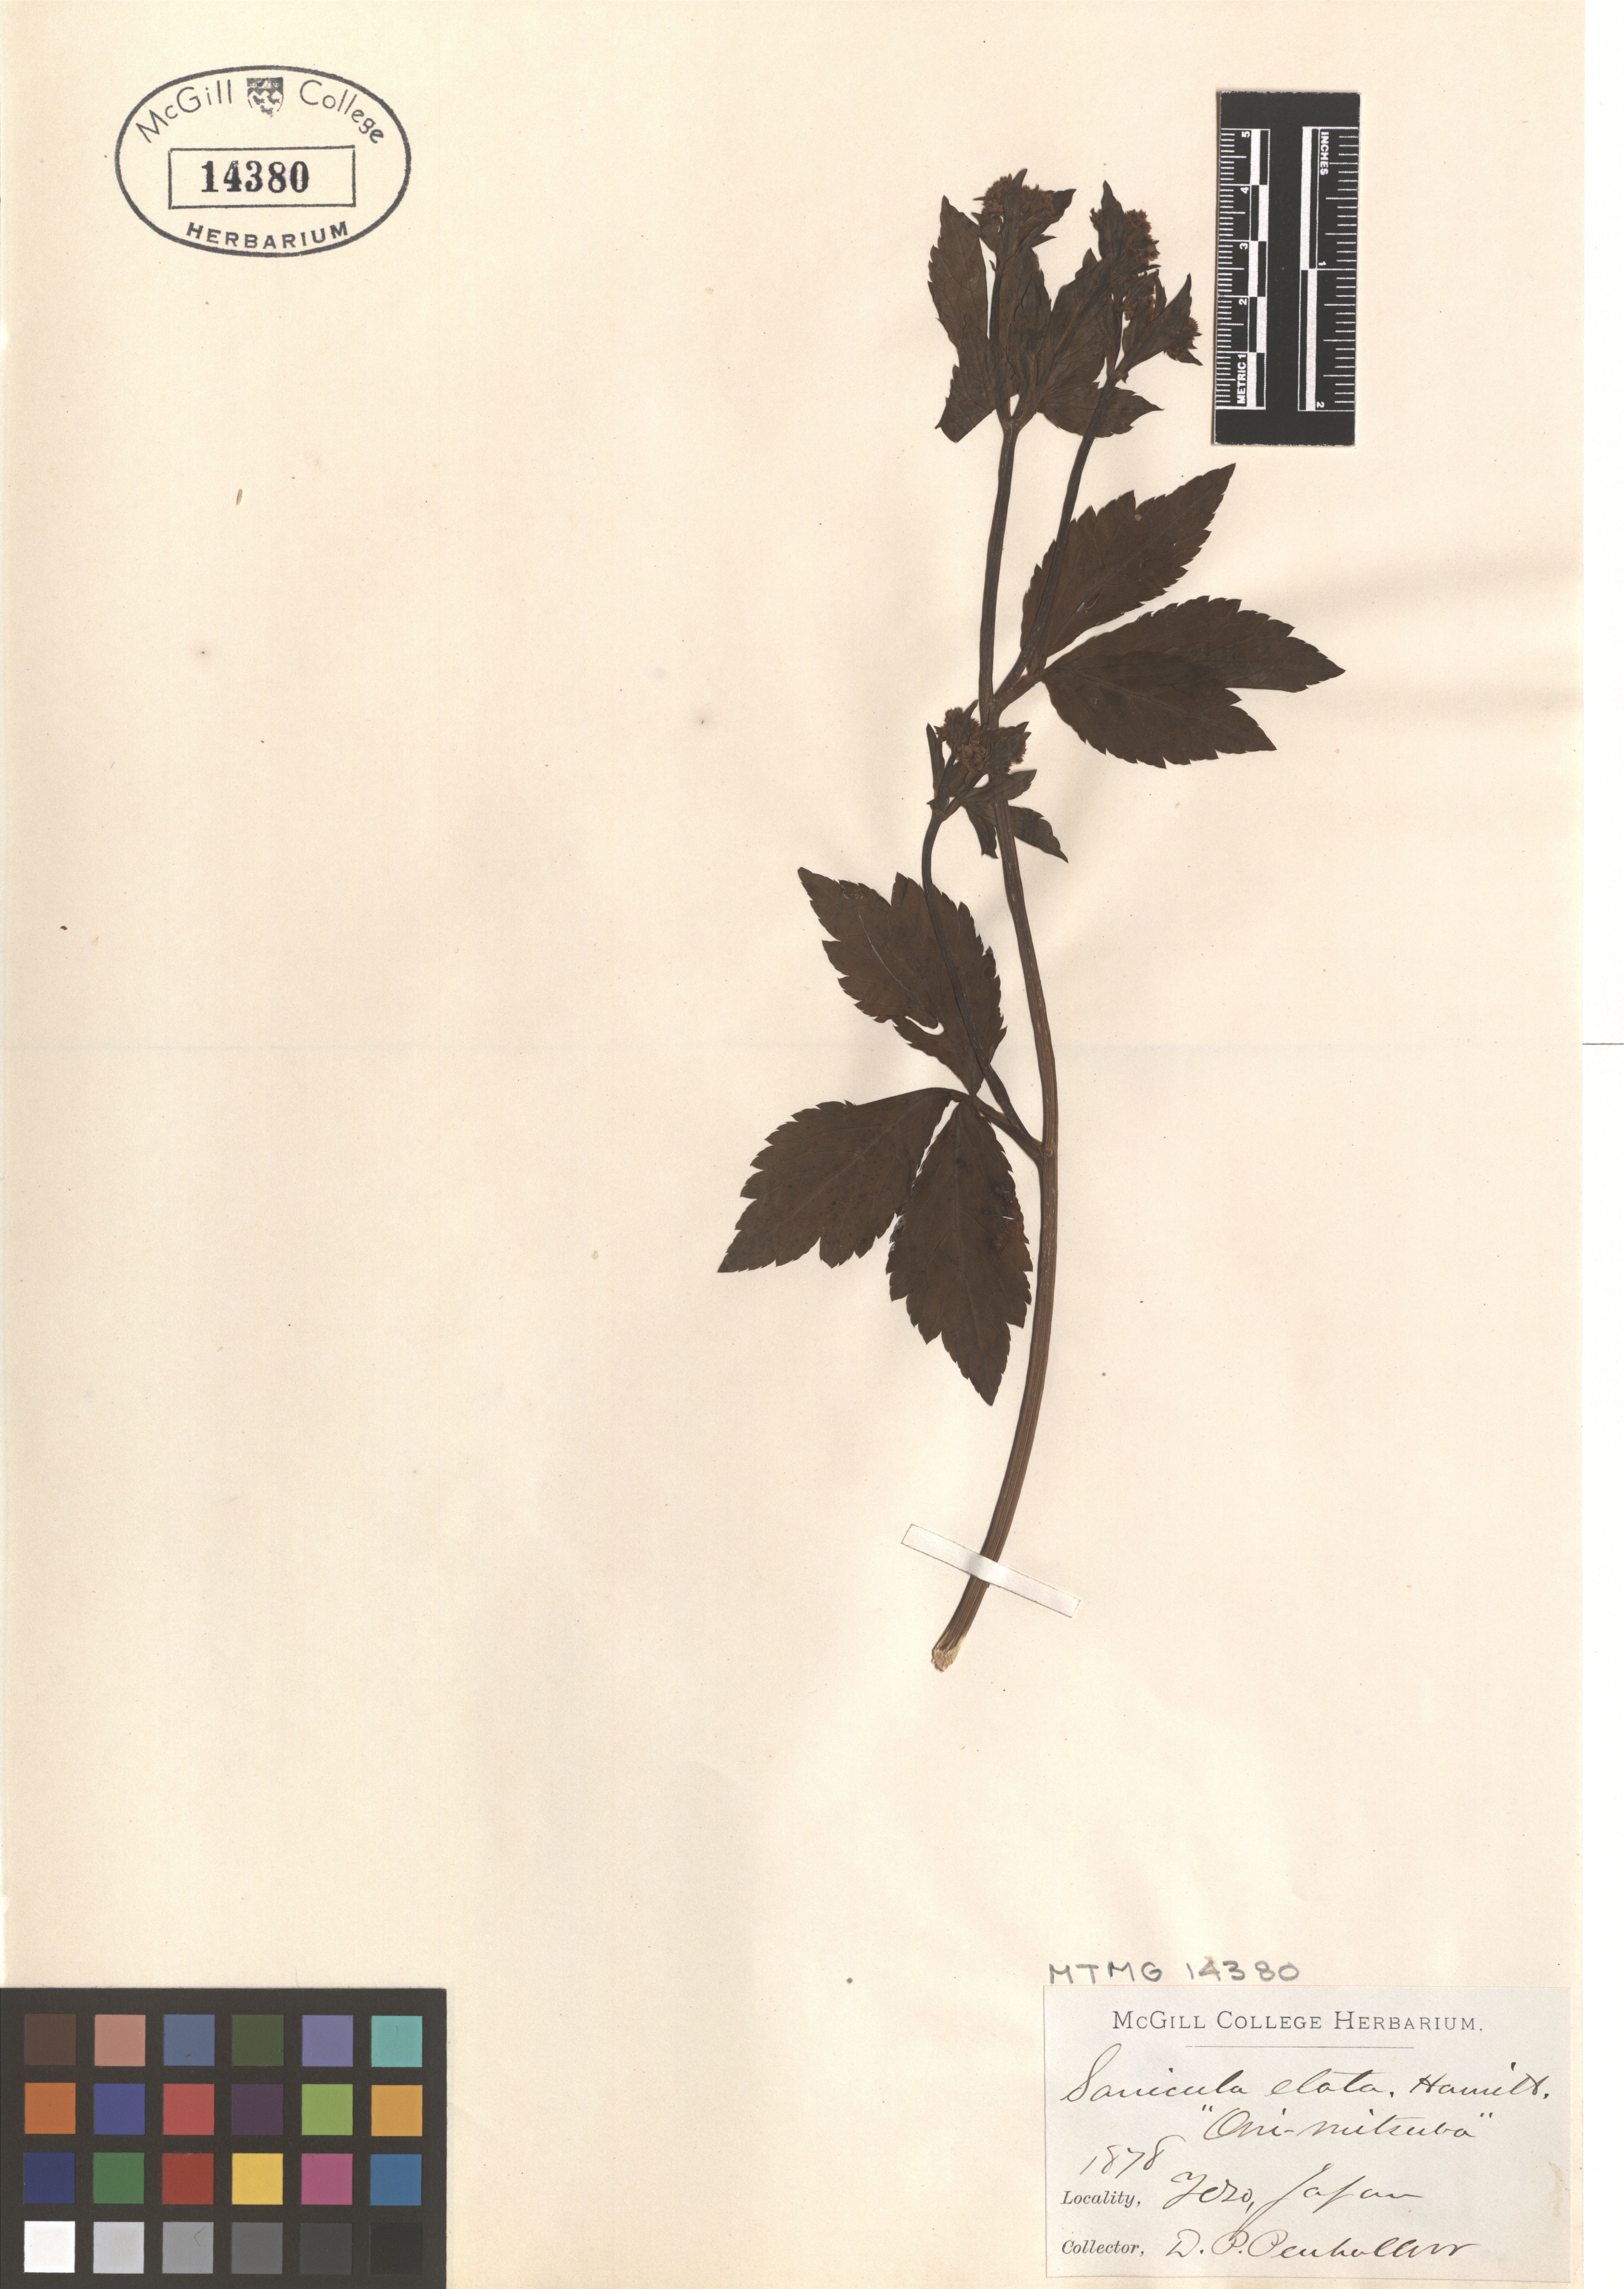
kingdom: Plantae
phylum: Tracheophyta
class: Magnoliopsida
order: Apiales
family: Apiaceae
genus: Sanicula
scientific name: Sanicula elata
